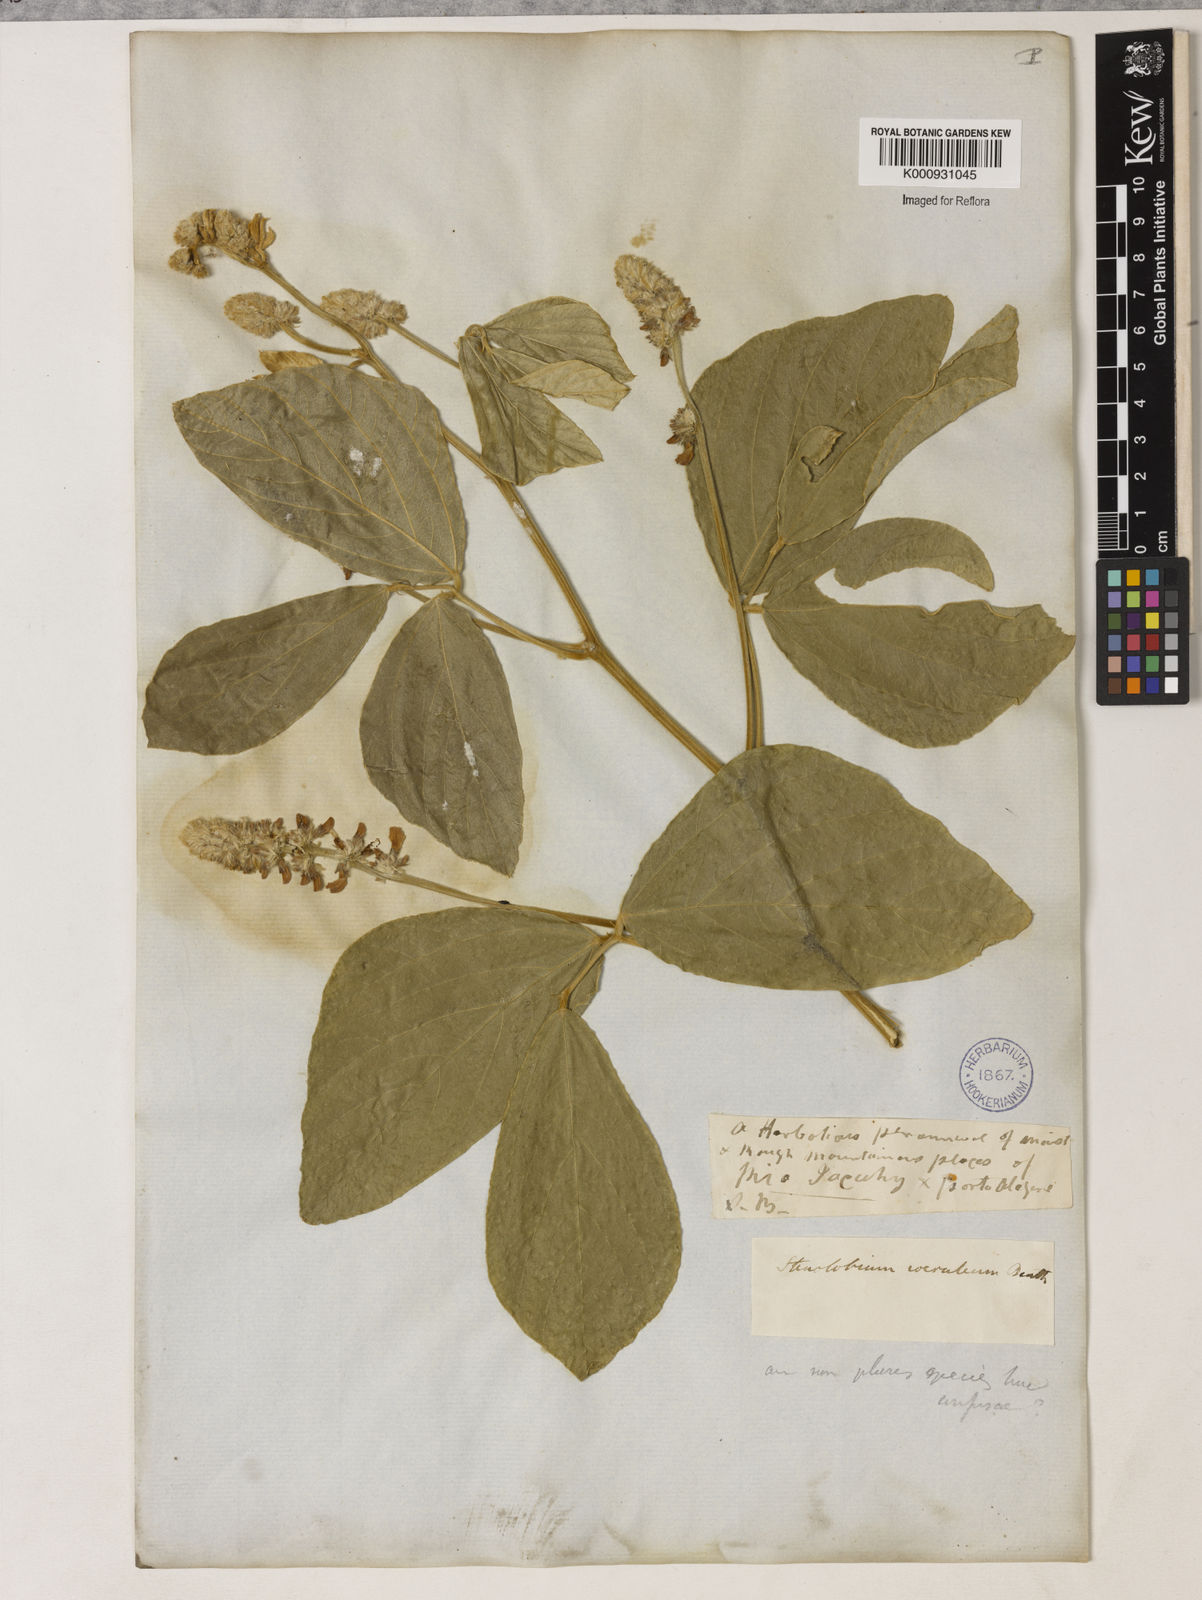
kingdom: Plantae
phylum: Tracheophyta
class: Magnoliopsida
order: Fabales
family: Fabaceae
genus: Calopogonium
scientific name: Calopogonium caeruleum
